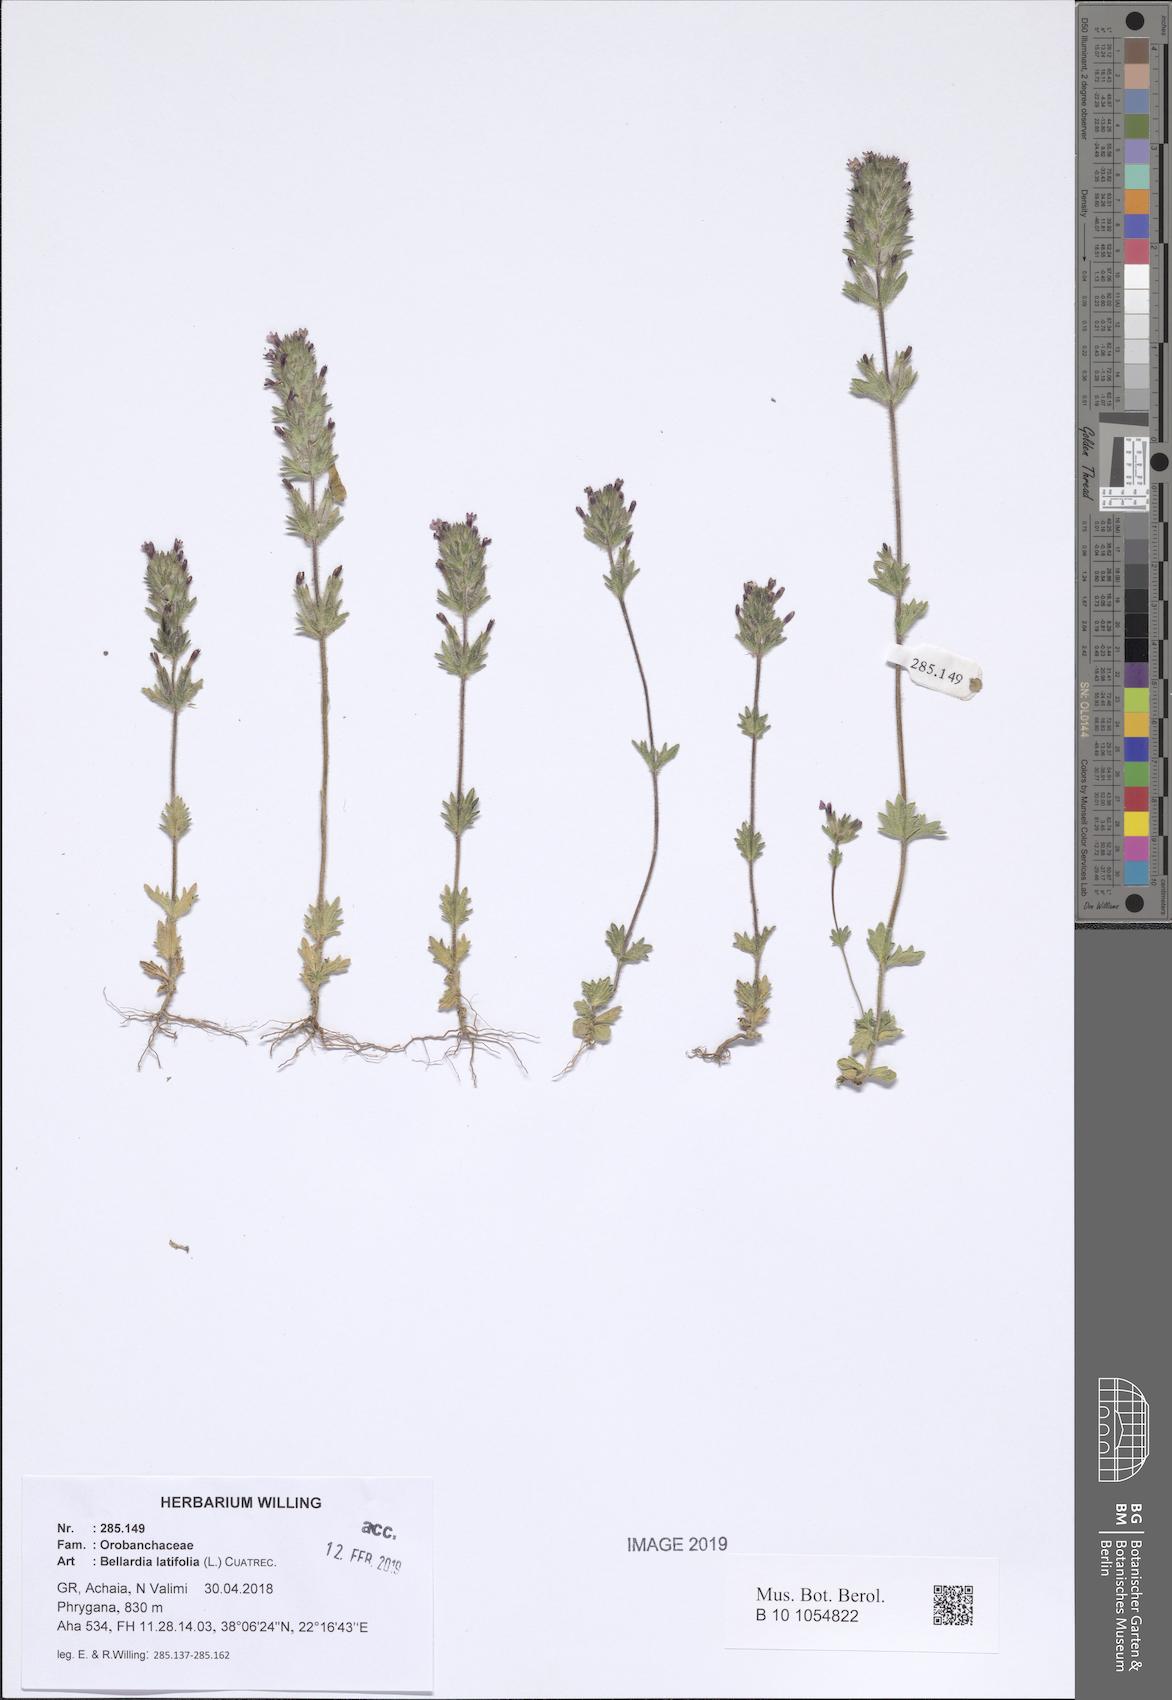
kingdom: Plantae
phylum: Tracheophyta
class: Magnoliopsida
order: Lamiales
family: Orobanchaceae
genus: Parentucellia
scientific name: Parentucellia latifolia
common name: Broadleaf glandweed
